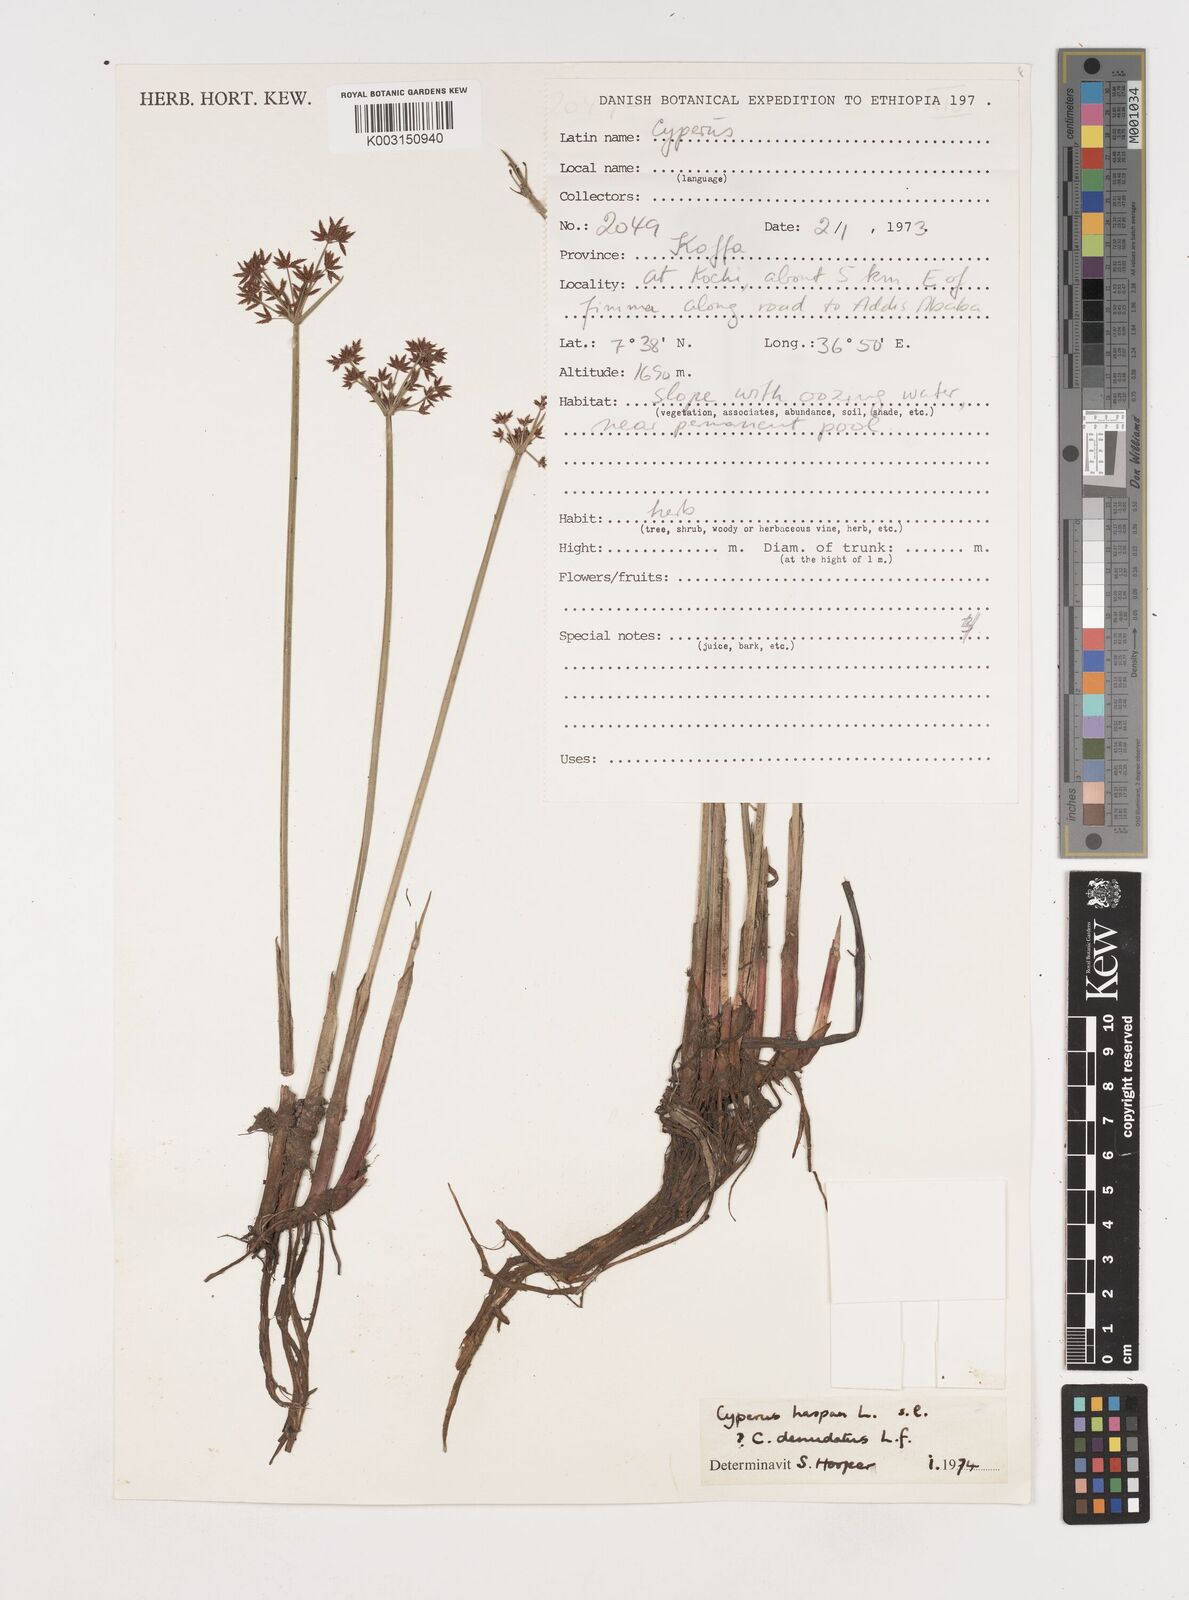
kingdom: Plantae
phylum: Tracheophyta
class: Liliopsida
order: Poales
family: Cyperaceae
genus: Cyperus
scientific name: Cyperus haspan
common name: Haspan flatsedge
